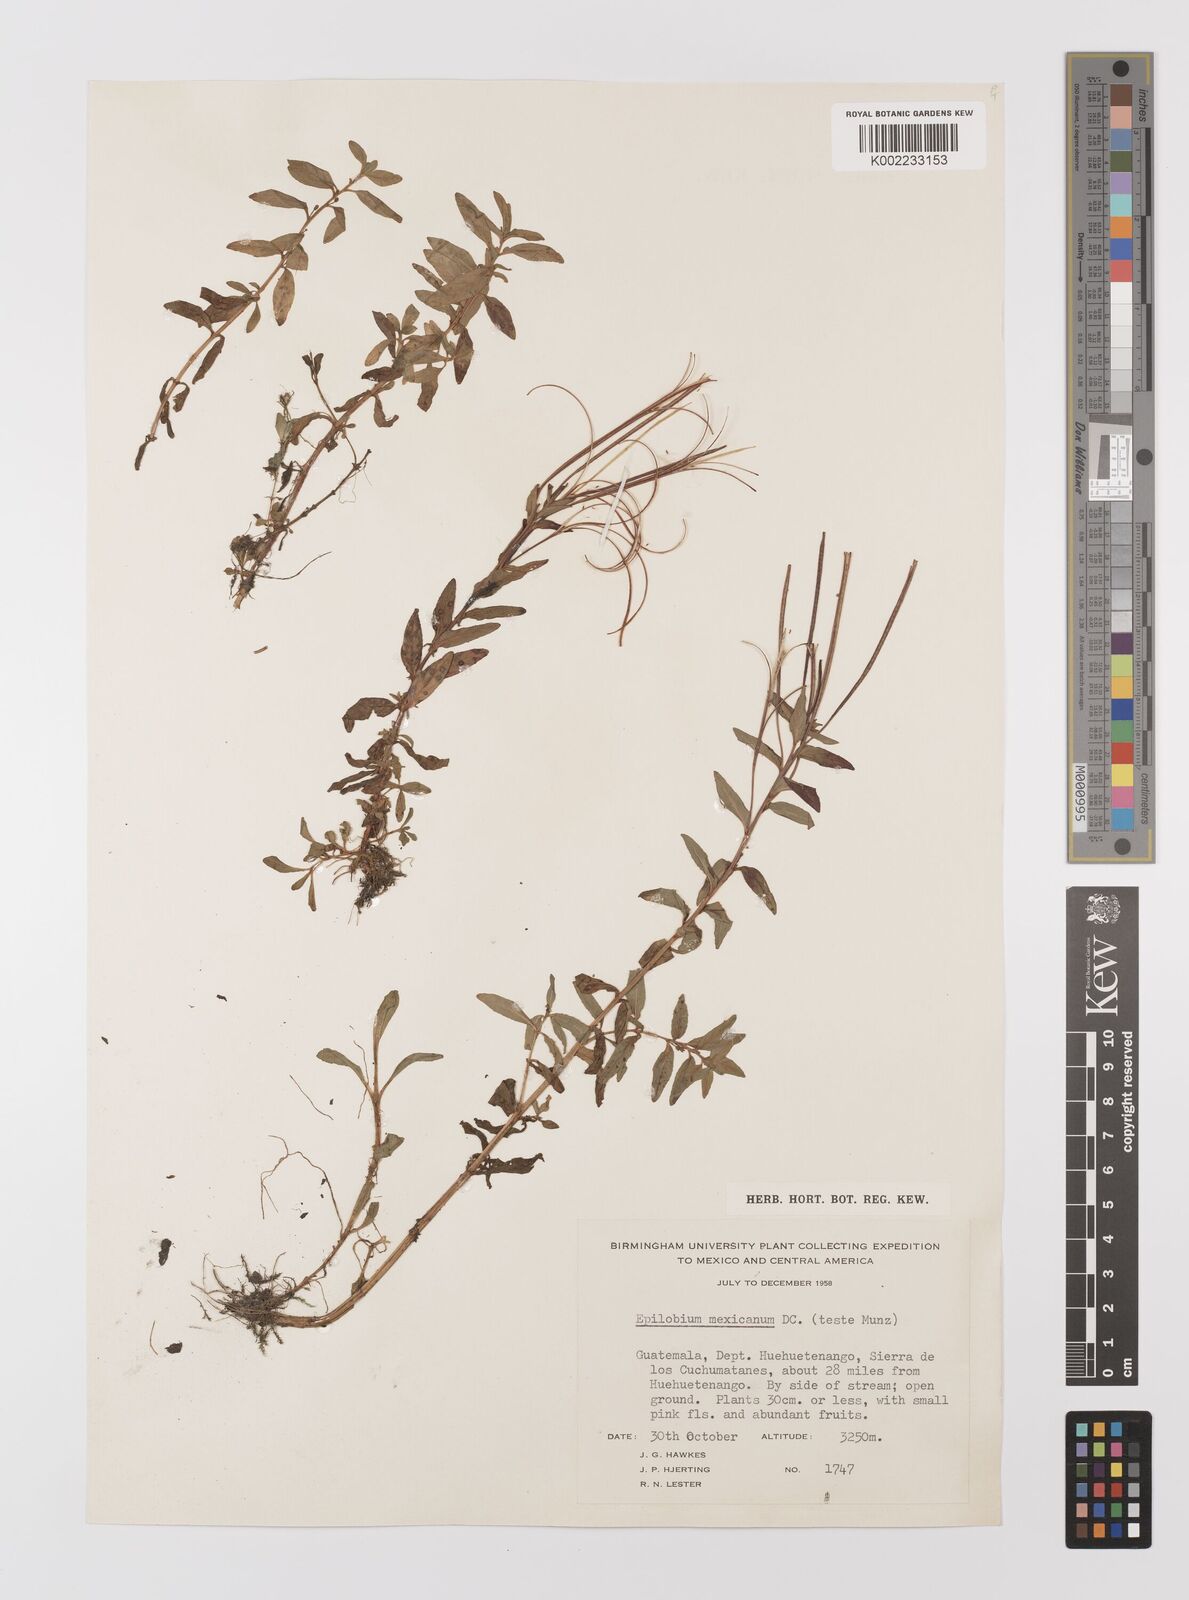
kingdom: Plantae
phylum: Tracheophyta
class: Magnoliopsida
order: Myrtales
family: Onagraceae
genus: Epilobium
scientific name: Epilobium
